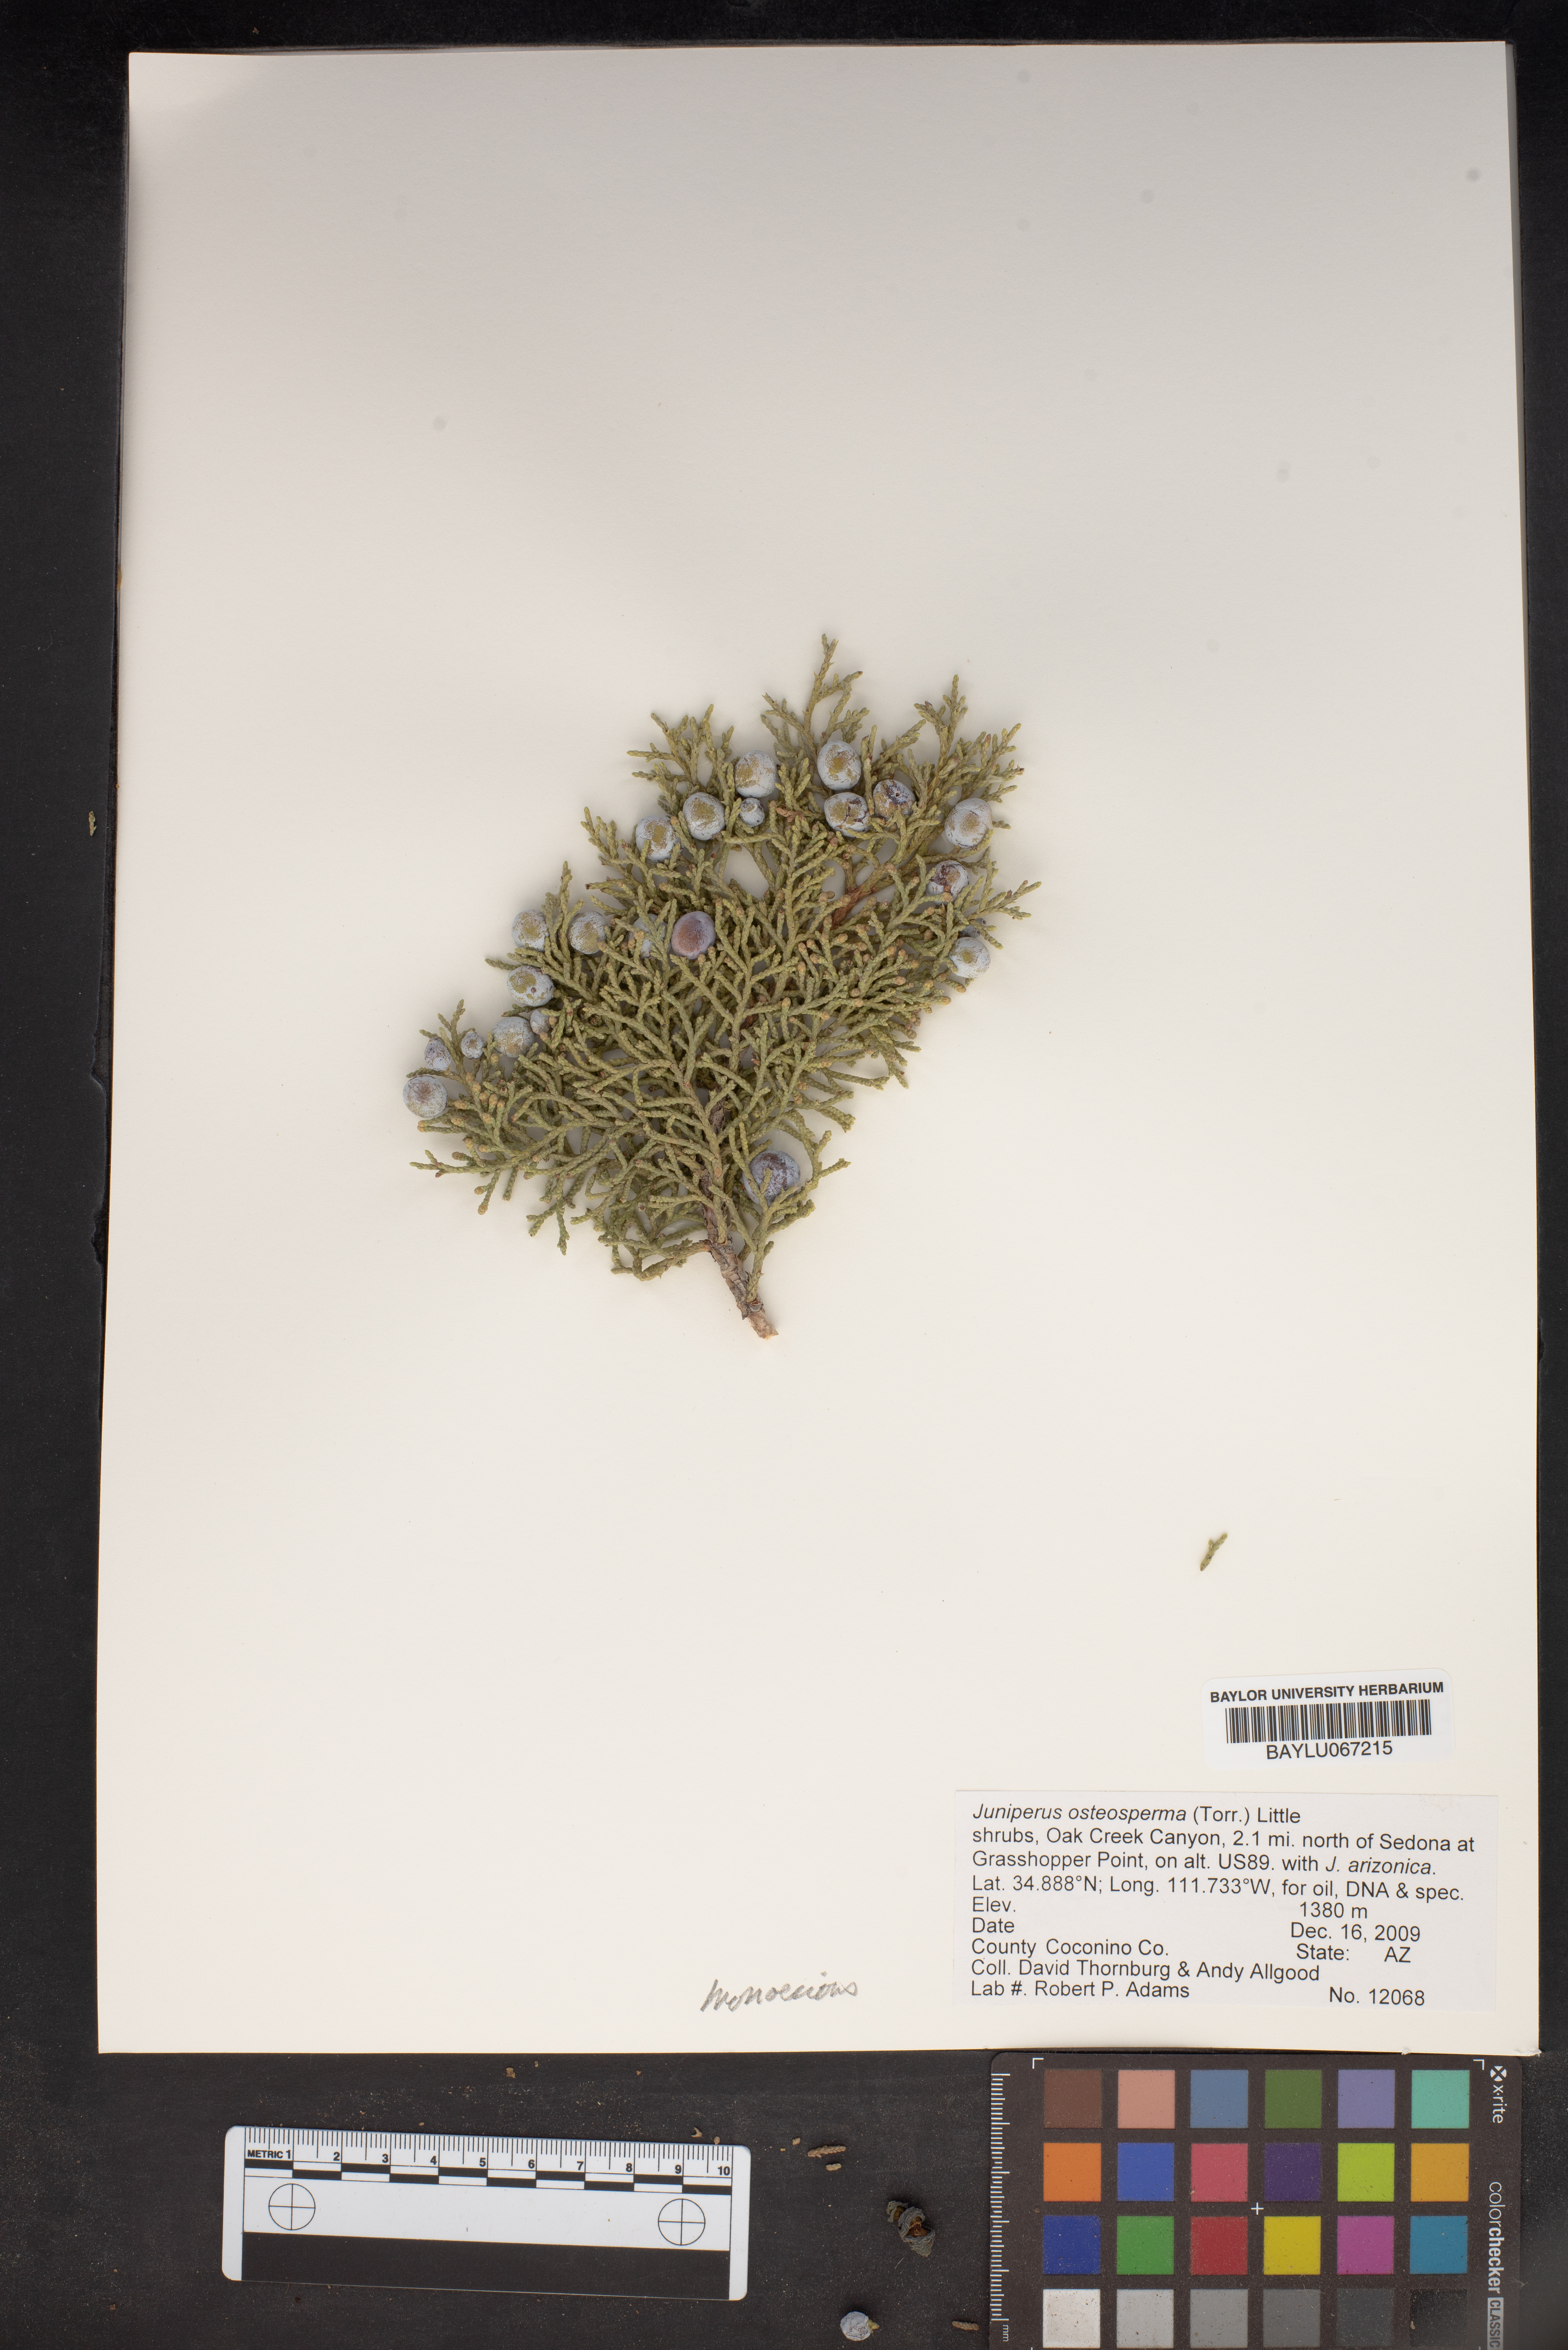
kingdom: Plantae
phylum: Tracheophyta
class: Pinopsida
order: Pinales
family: Cupressaceae
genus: Juniperus
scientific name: Juniperus osteosperma
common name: Utah juniper
